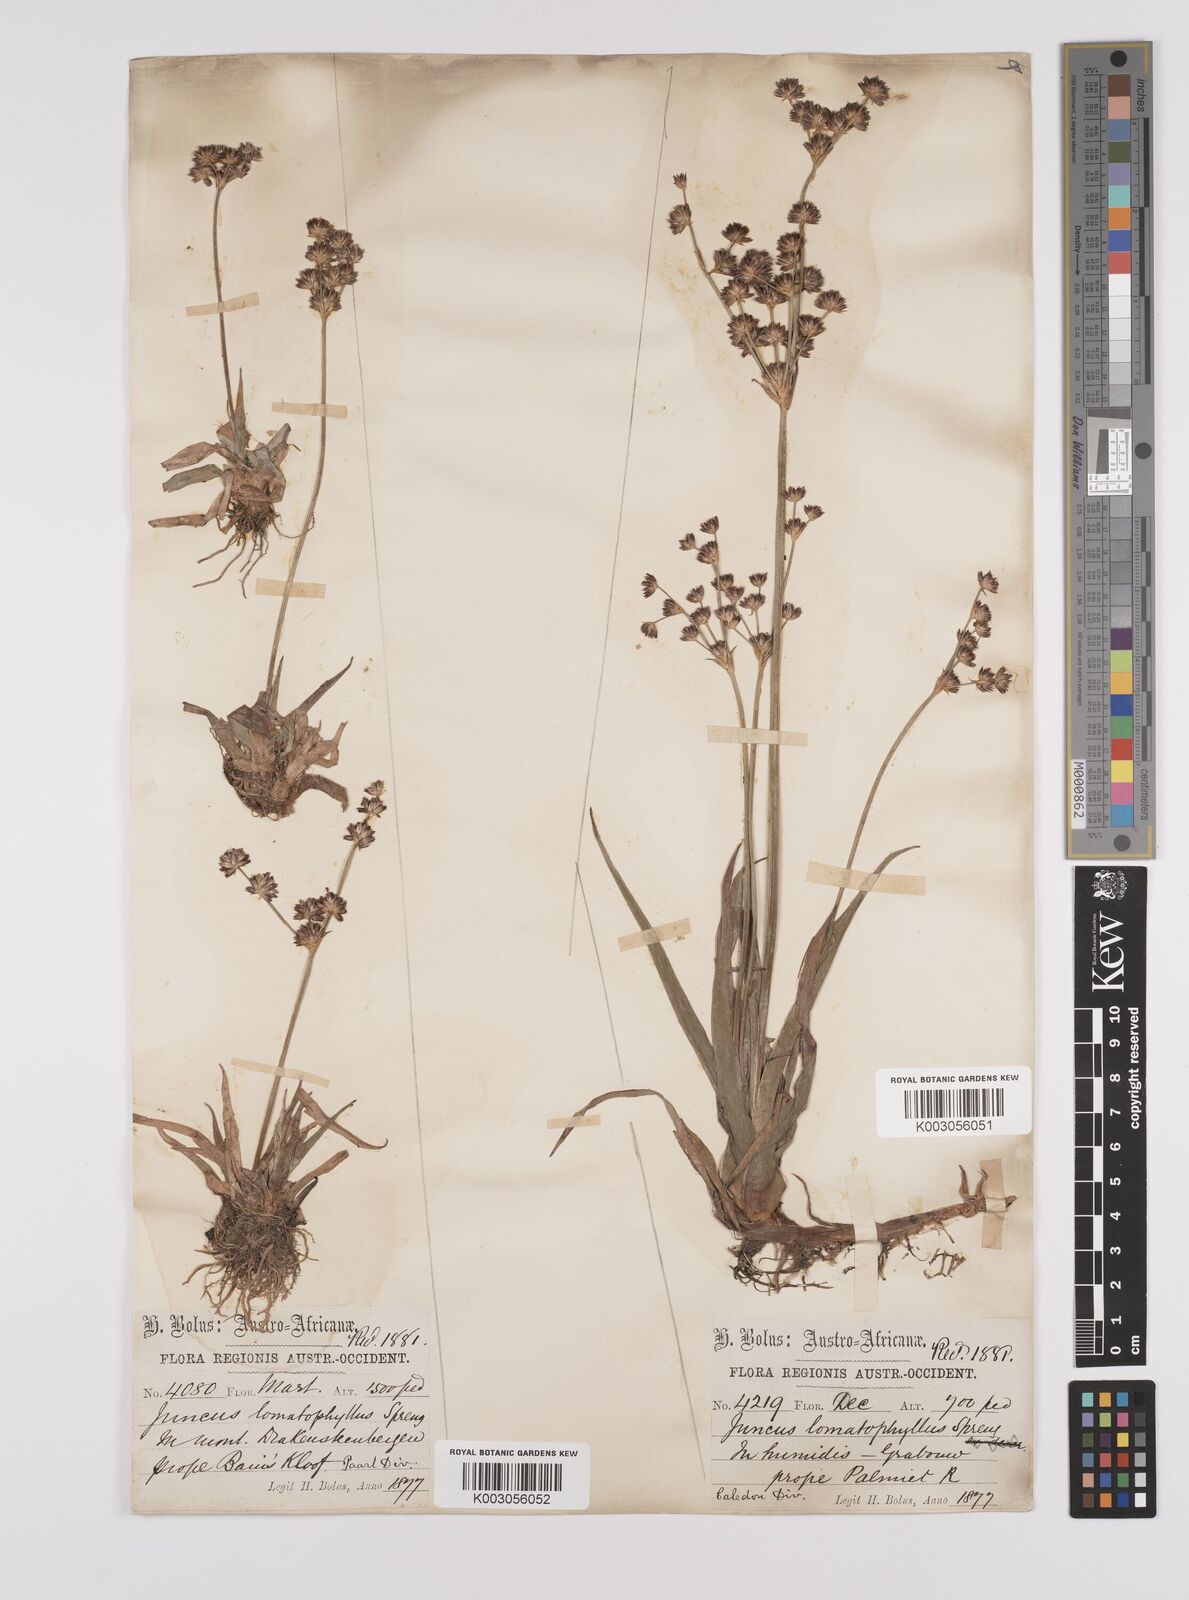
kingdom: Plantae
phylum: Tracheophyta
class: Liliopsida
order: Poales
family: Juncaceae
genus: Juncus
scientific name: Juncus lomatophyllus
